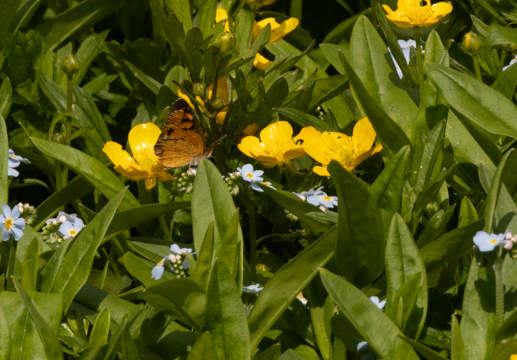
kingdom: Animalia
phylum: Arthropoda
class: Insecta
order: Lepidoptera
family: Nymphalidae
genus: Phyciodes
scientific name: Phyciodes tharos
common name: Northern Crescent
